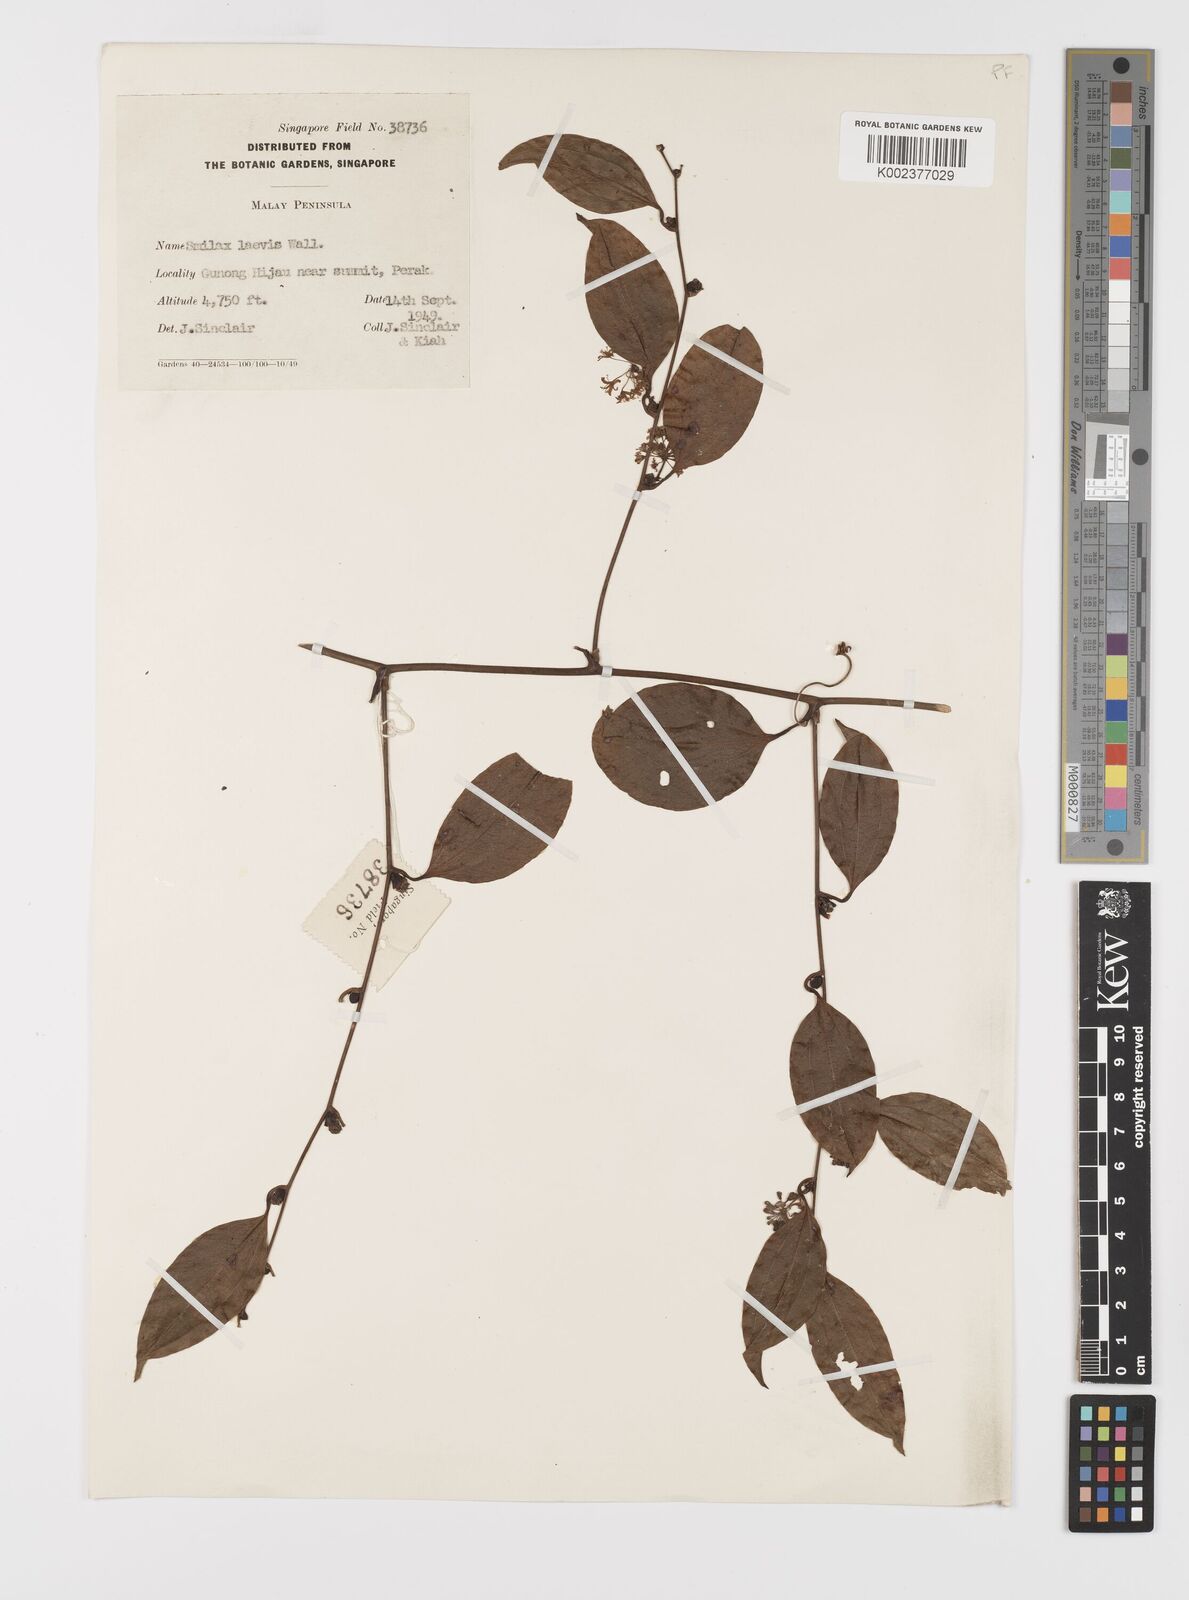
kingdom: Plantae
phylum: Tracheophyta
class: Liliopsida
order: Liliales
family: Smilacaceae
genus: Smilax
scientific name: Smilax laevis
